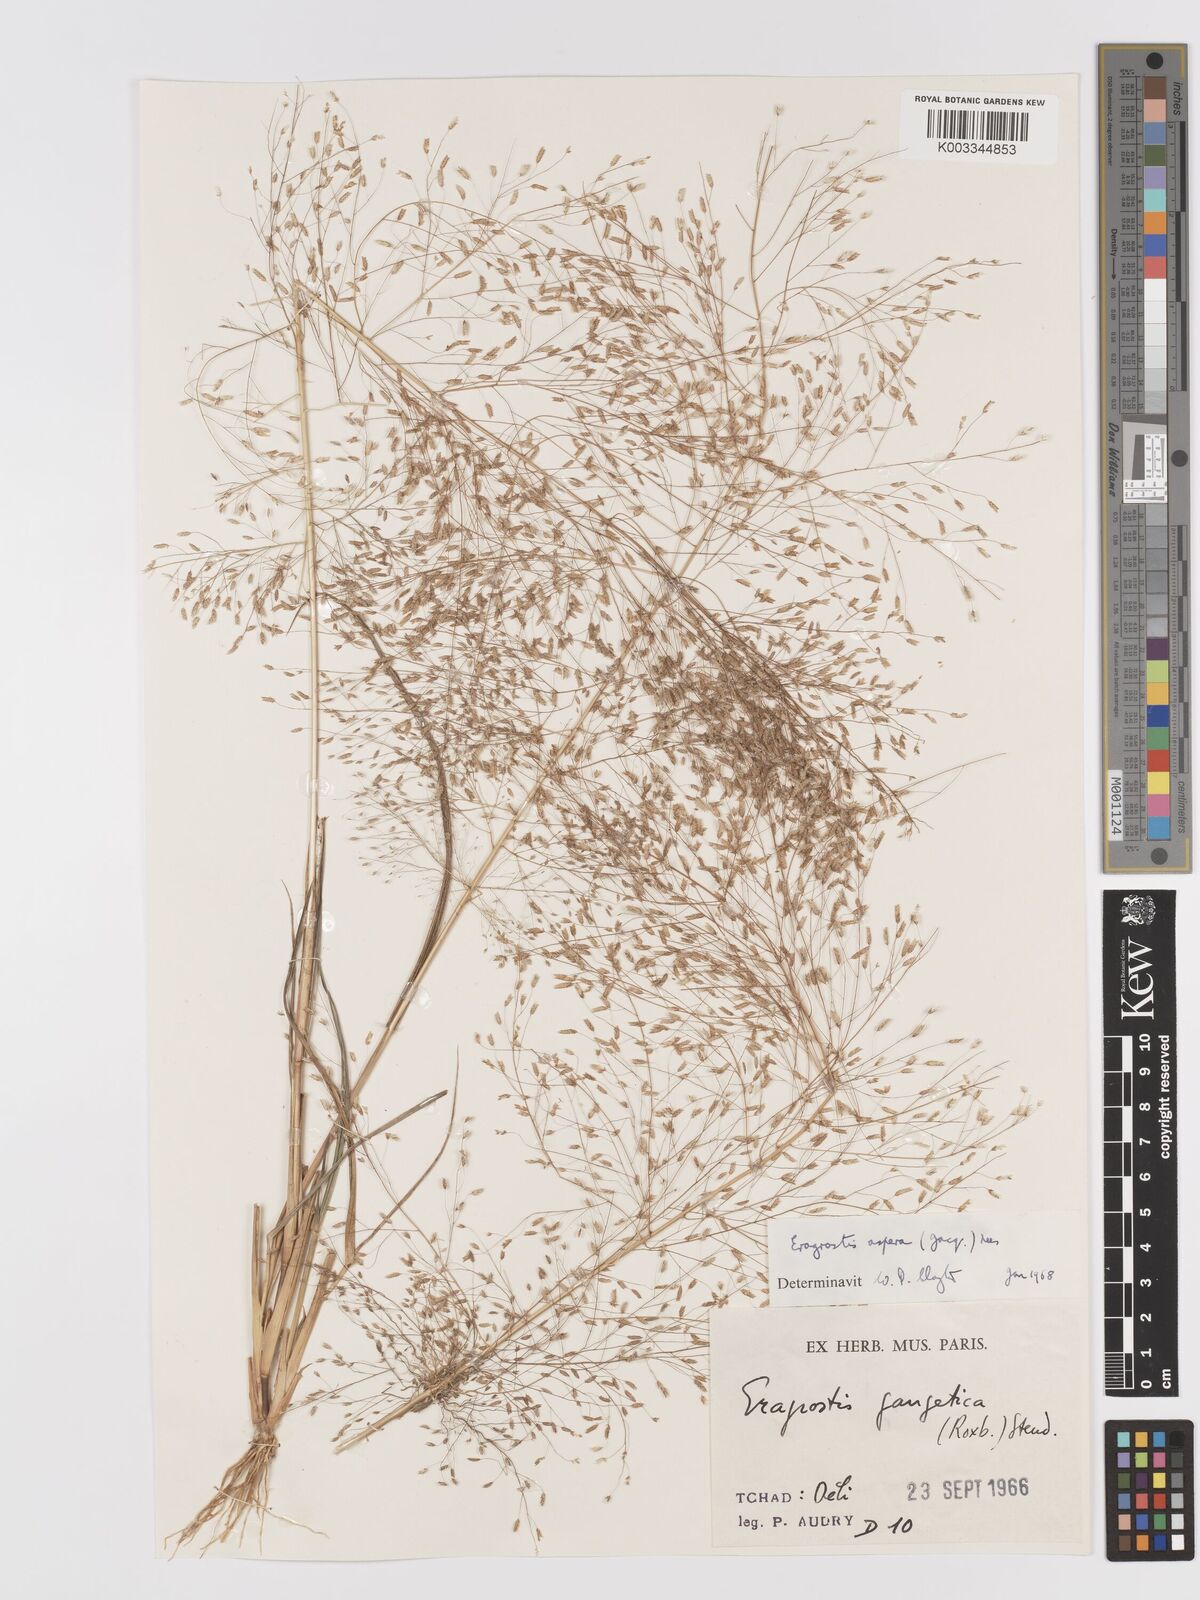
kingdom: Plantae
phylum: Tracheophyta
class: Liliopsida
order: Poales
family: Poaceae
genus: Eragrostis
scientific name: Eragrostis aspera
